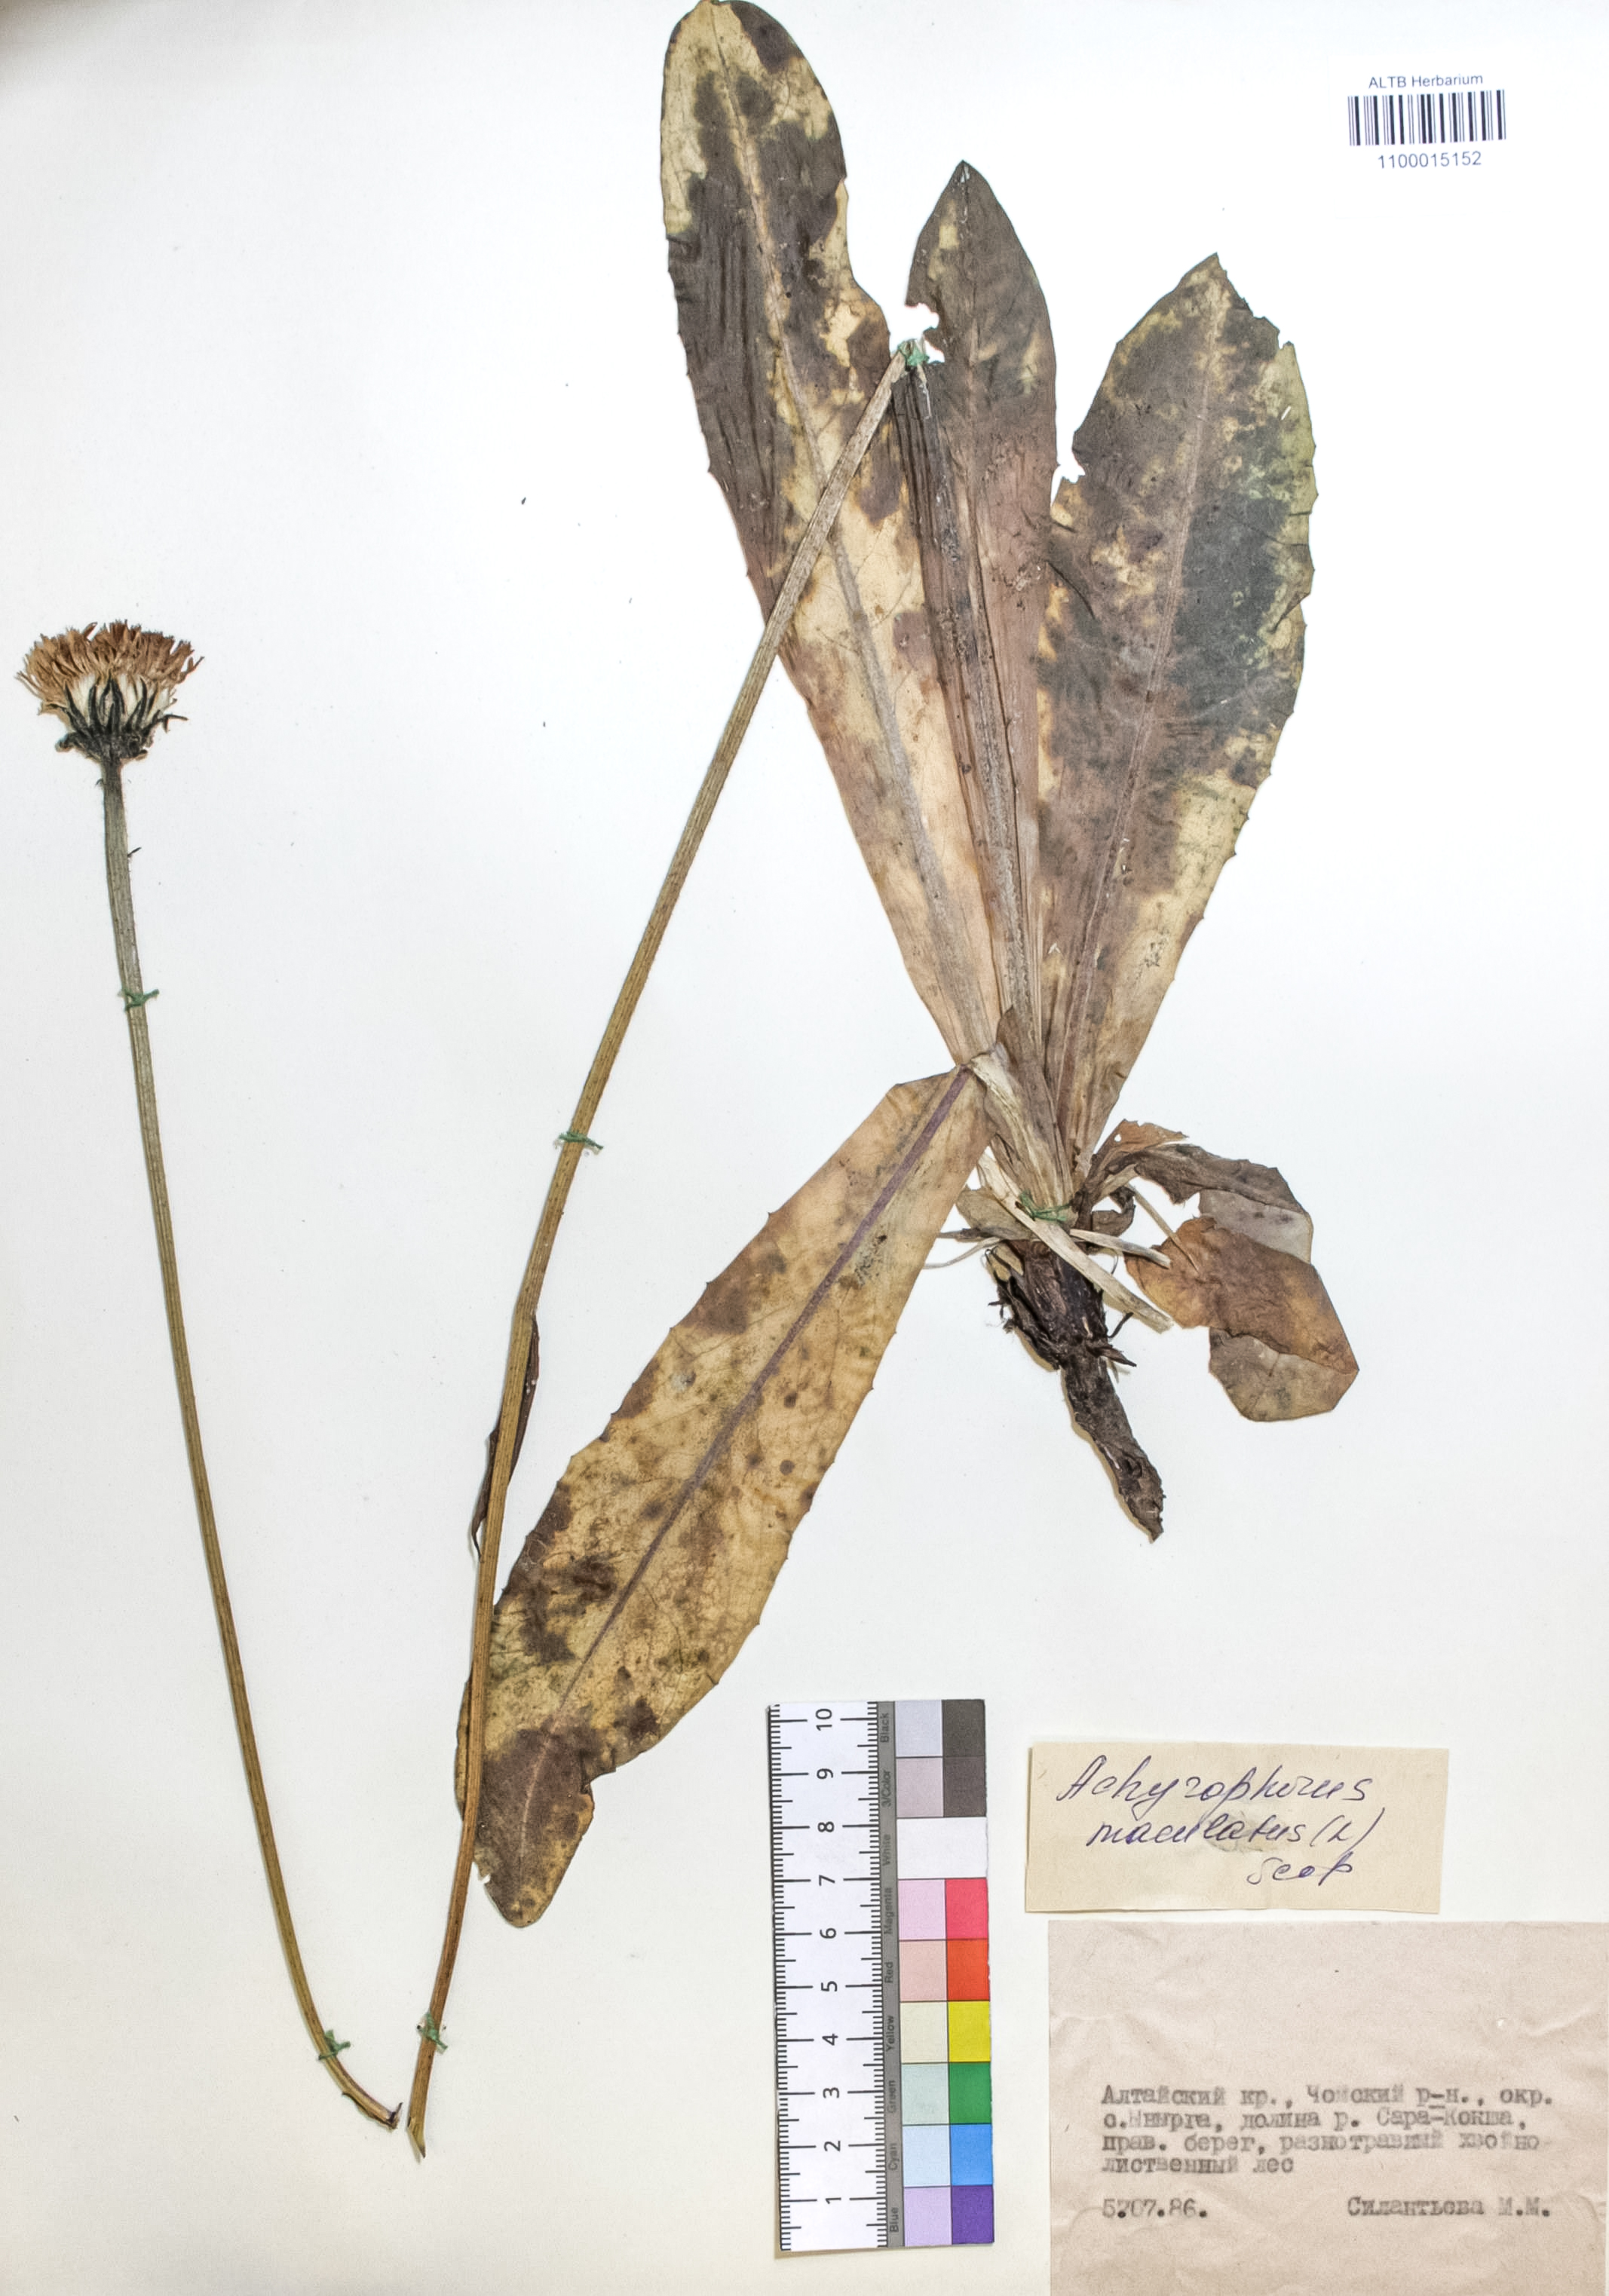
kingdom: Plantae
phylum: Tracheophyta
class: Magnoliopsida
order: Asterales
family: Asteraceae
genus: Trommsdorffia
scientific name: Trommsdorffia maculata
